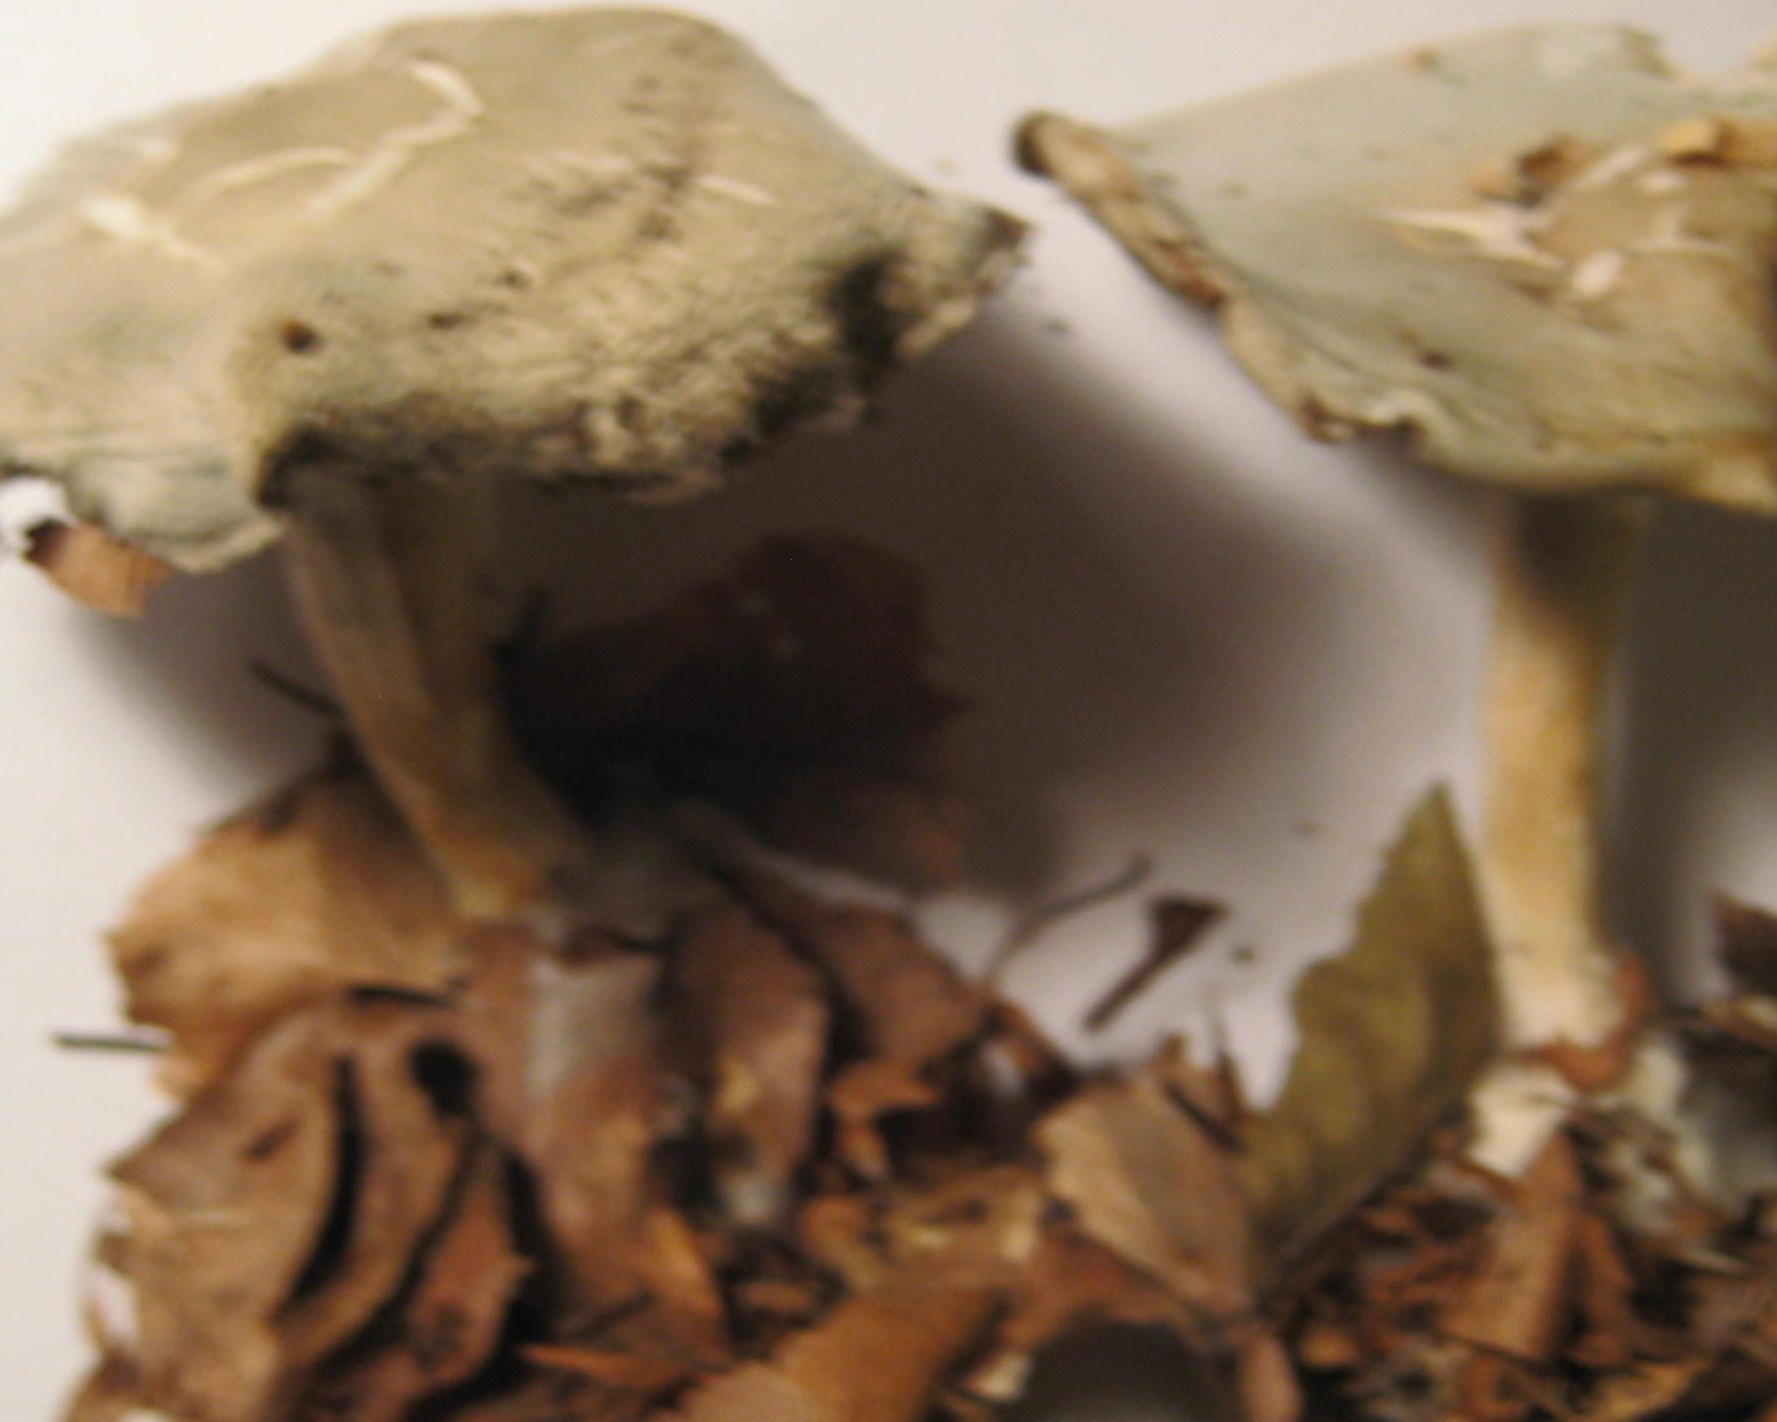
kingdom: Fungi
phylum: Basidiomycota
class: Agaricomycetes
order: Agaricales
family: Tricholomataceae
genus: Clitocybe
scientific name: Clitocybe odora
